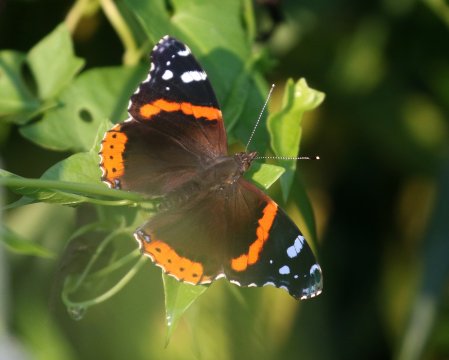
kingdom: Animalia
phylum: Arthropoda
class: Insecta
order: Lepidoptera
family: Nymphalidae
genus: Vanessa
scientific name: Vanessa atalanta
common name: Red Admiral
